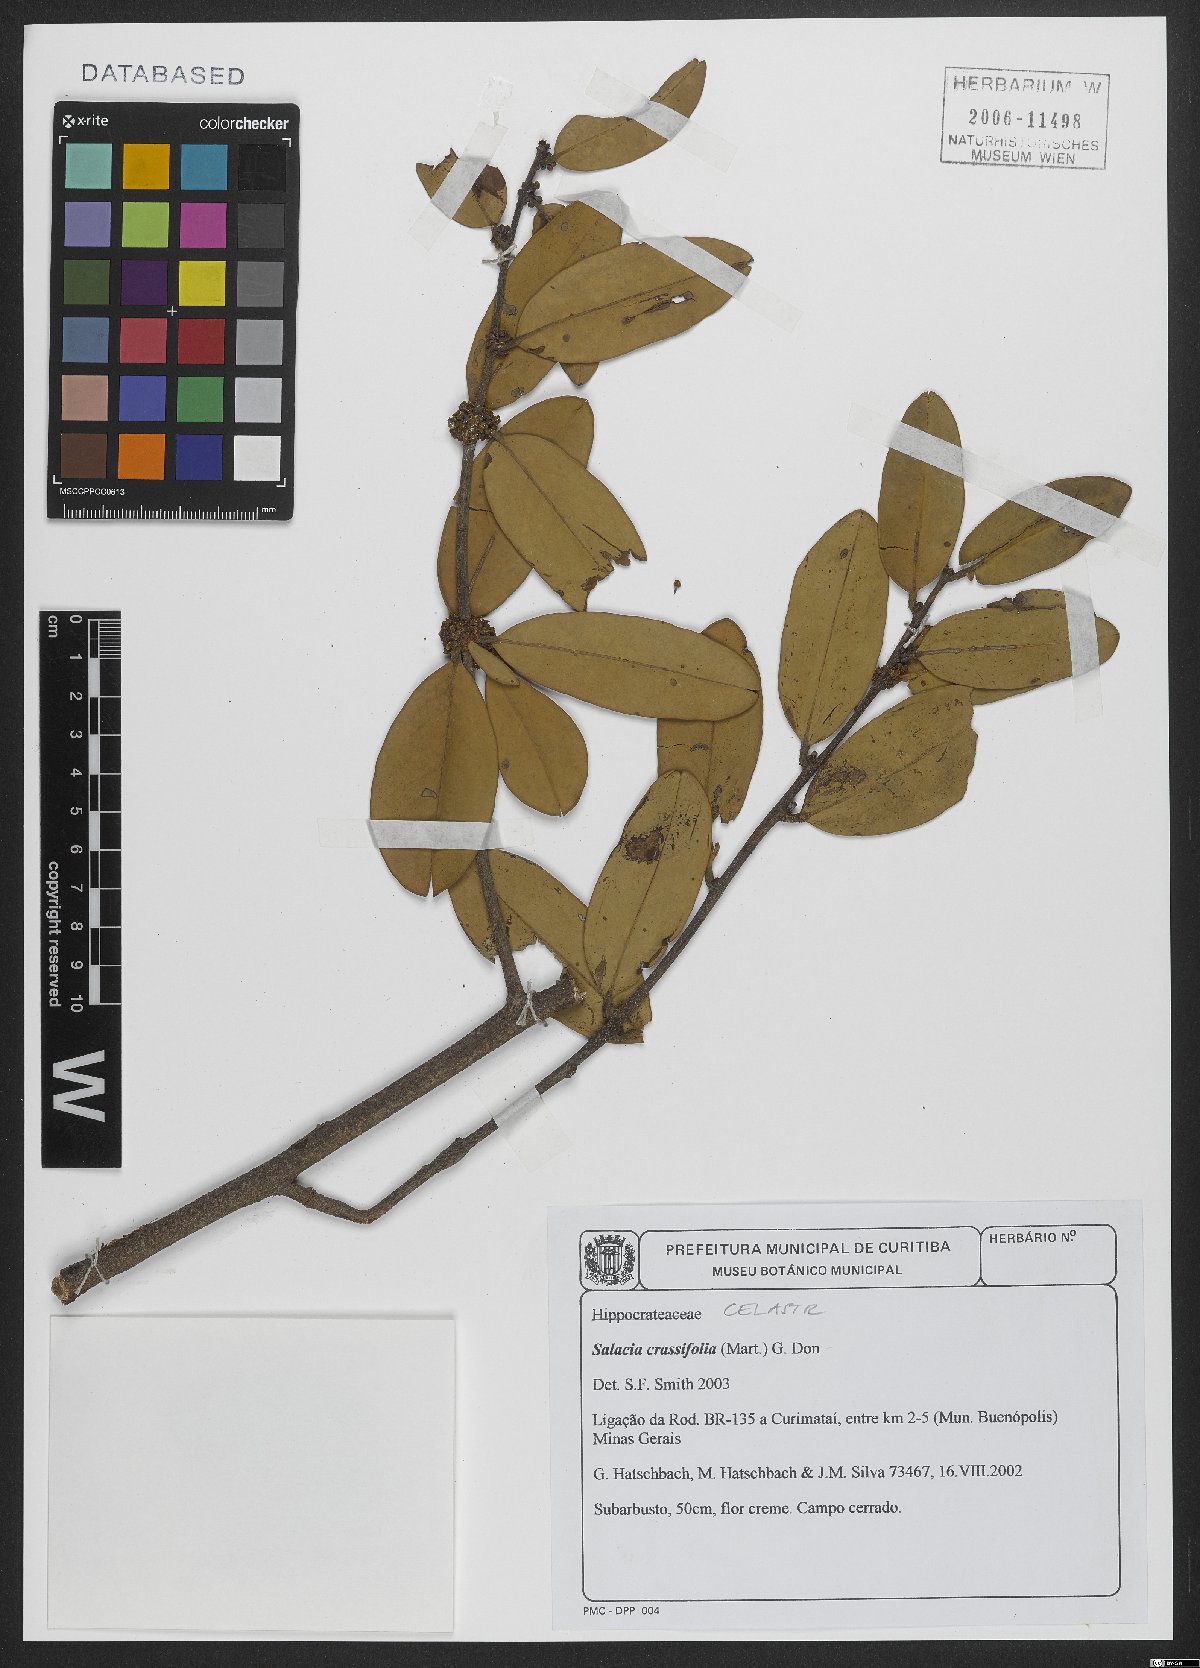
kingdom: Plantae
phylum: Tracheophyta
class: Magnoliopsida
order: Celastrales
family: Celastraceae
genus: Salacia
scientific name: Salacia crassifolia
